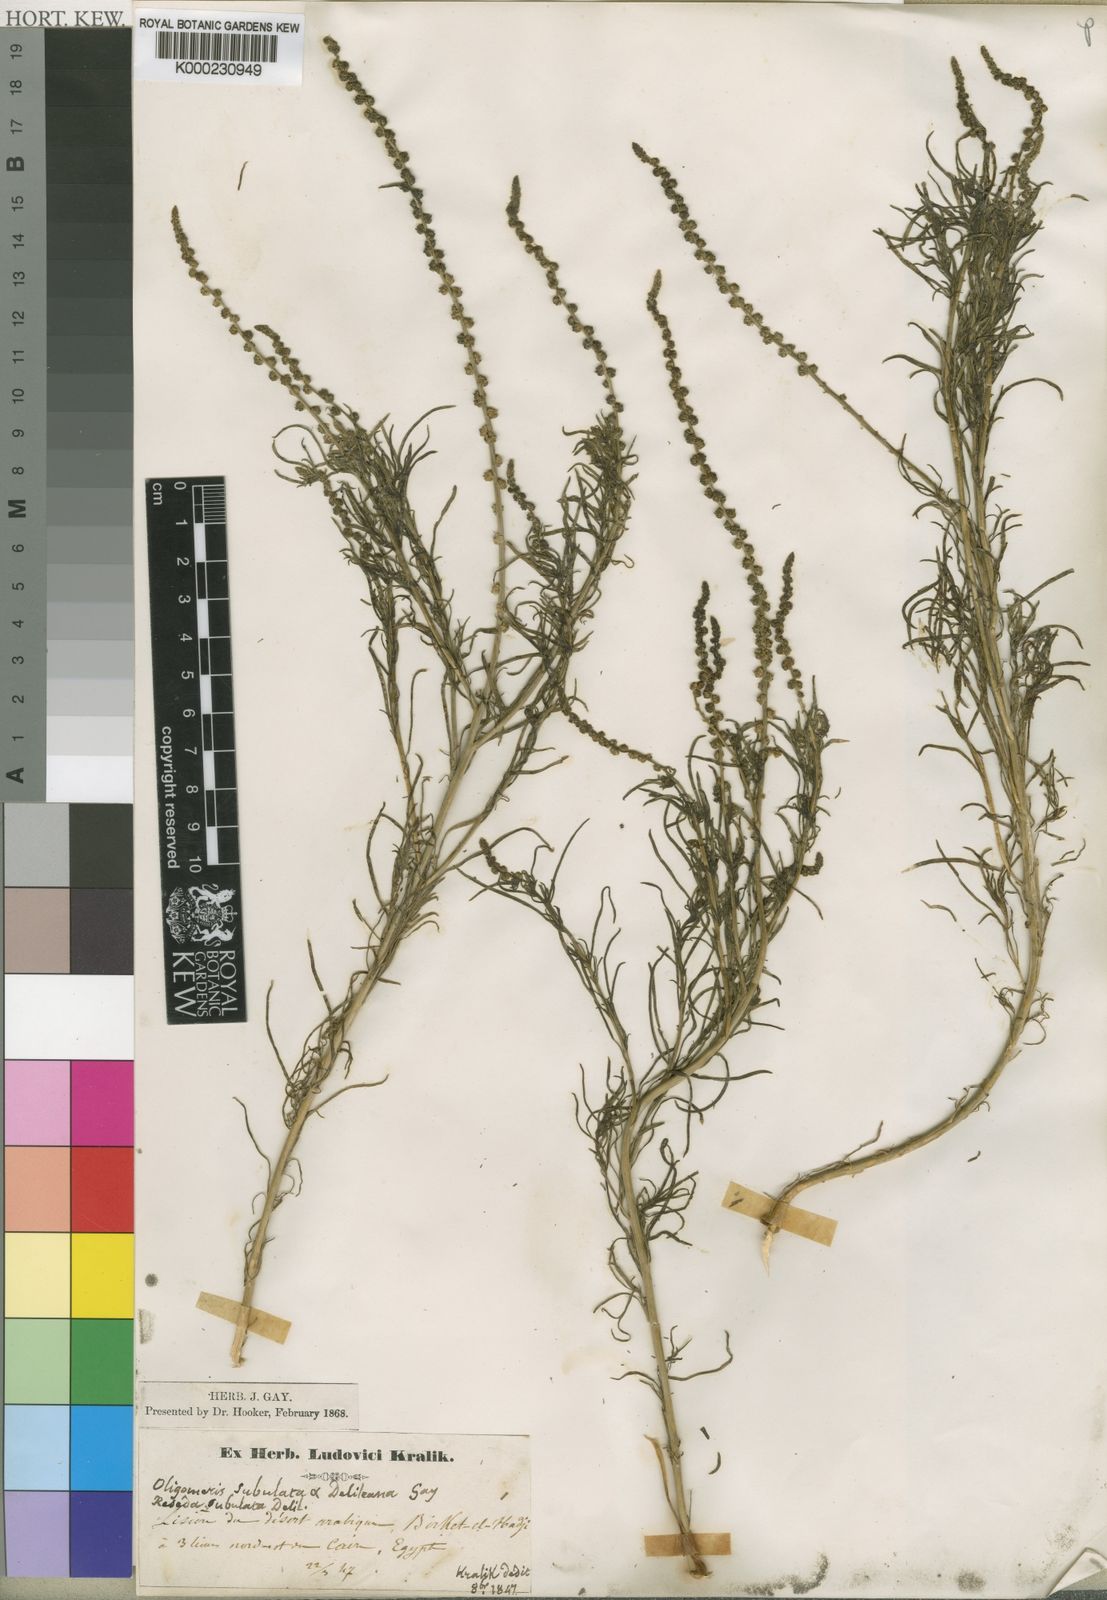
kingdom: Plantae
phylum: Tracheophyta
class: Magnoliopsida
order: Brassicales
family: Resedaceae
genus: Oligomeris
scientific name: Oligomeris linifolia
